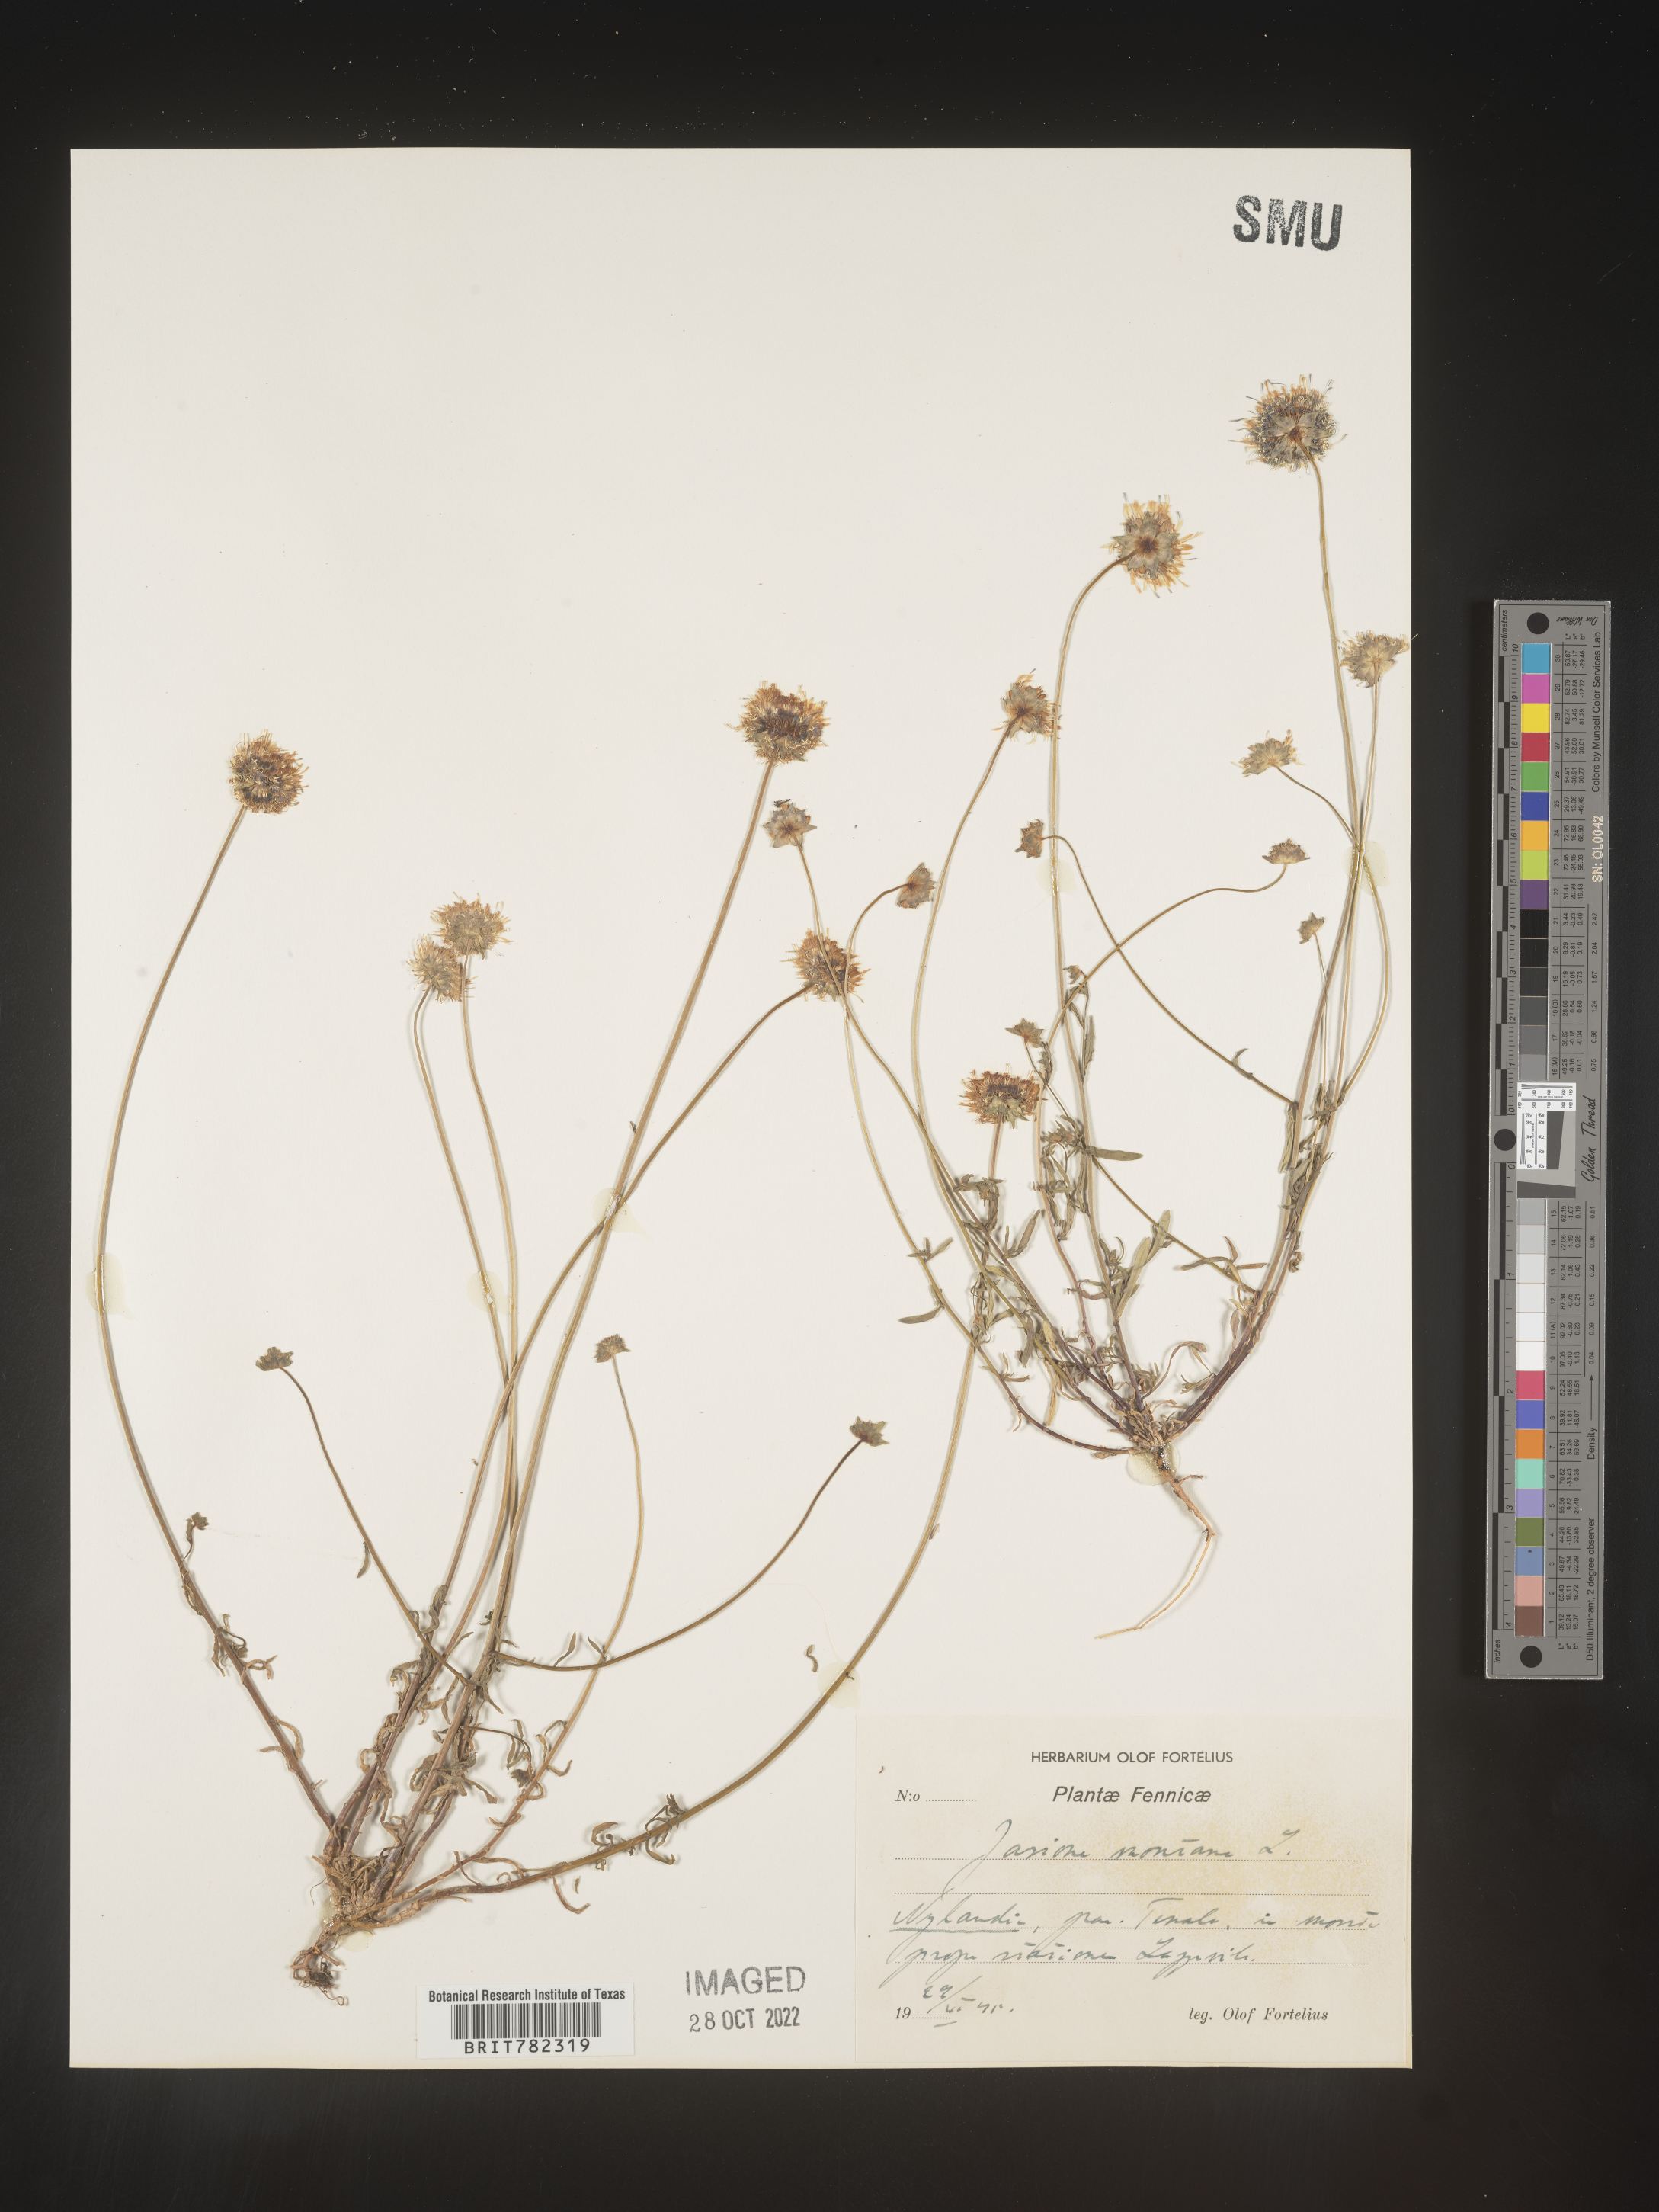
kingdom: Plantae
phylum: Tracheophyta
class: Magnoliopsida
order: Asterales
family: Campanulaceae
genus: Jasione
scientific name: Jasione
